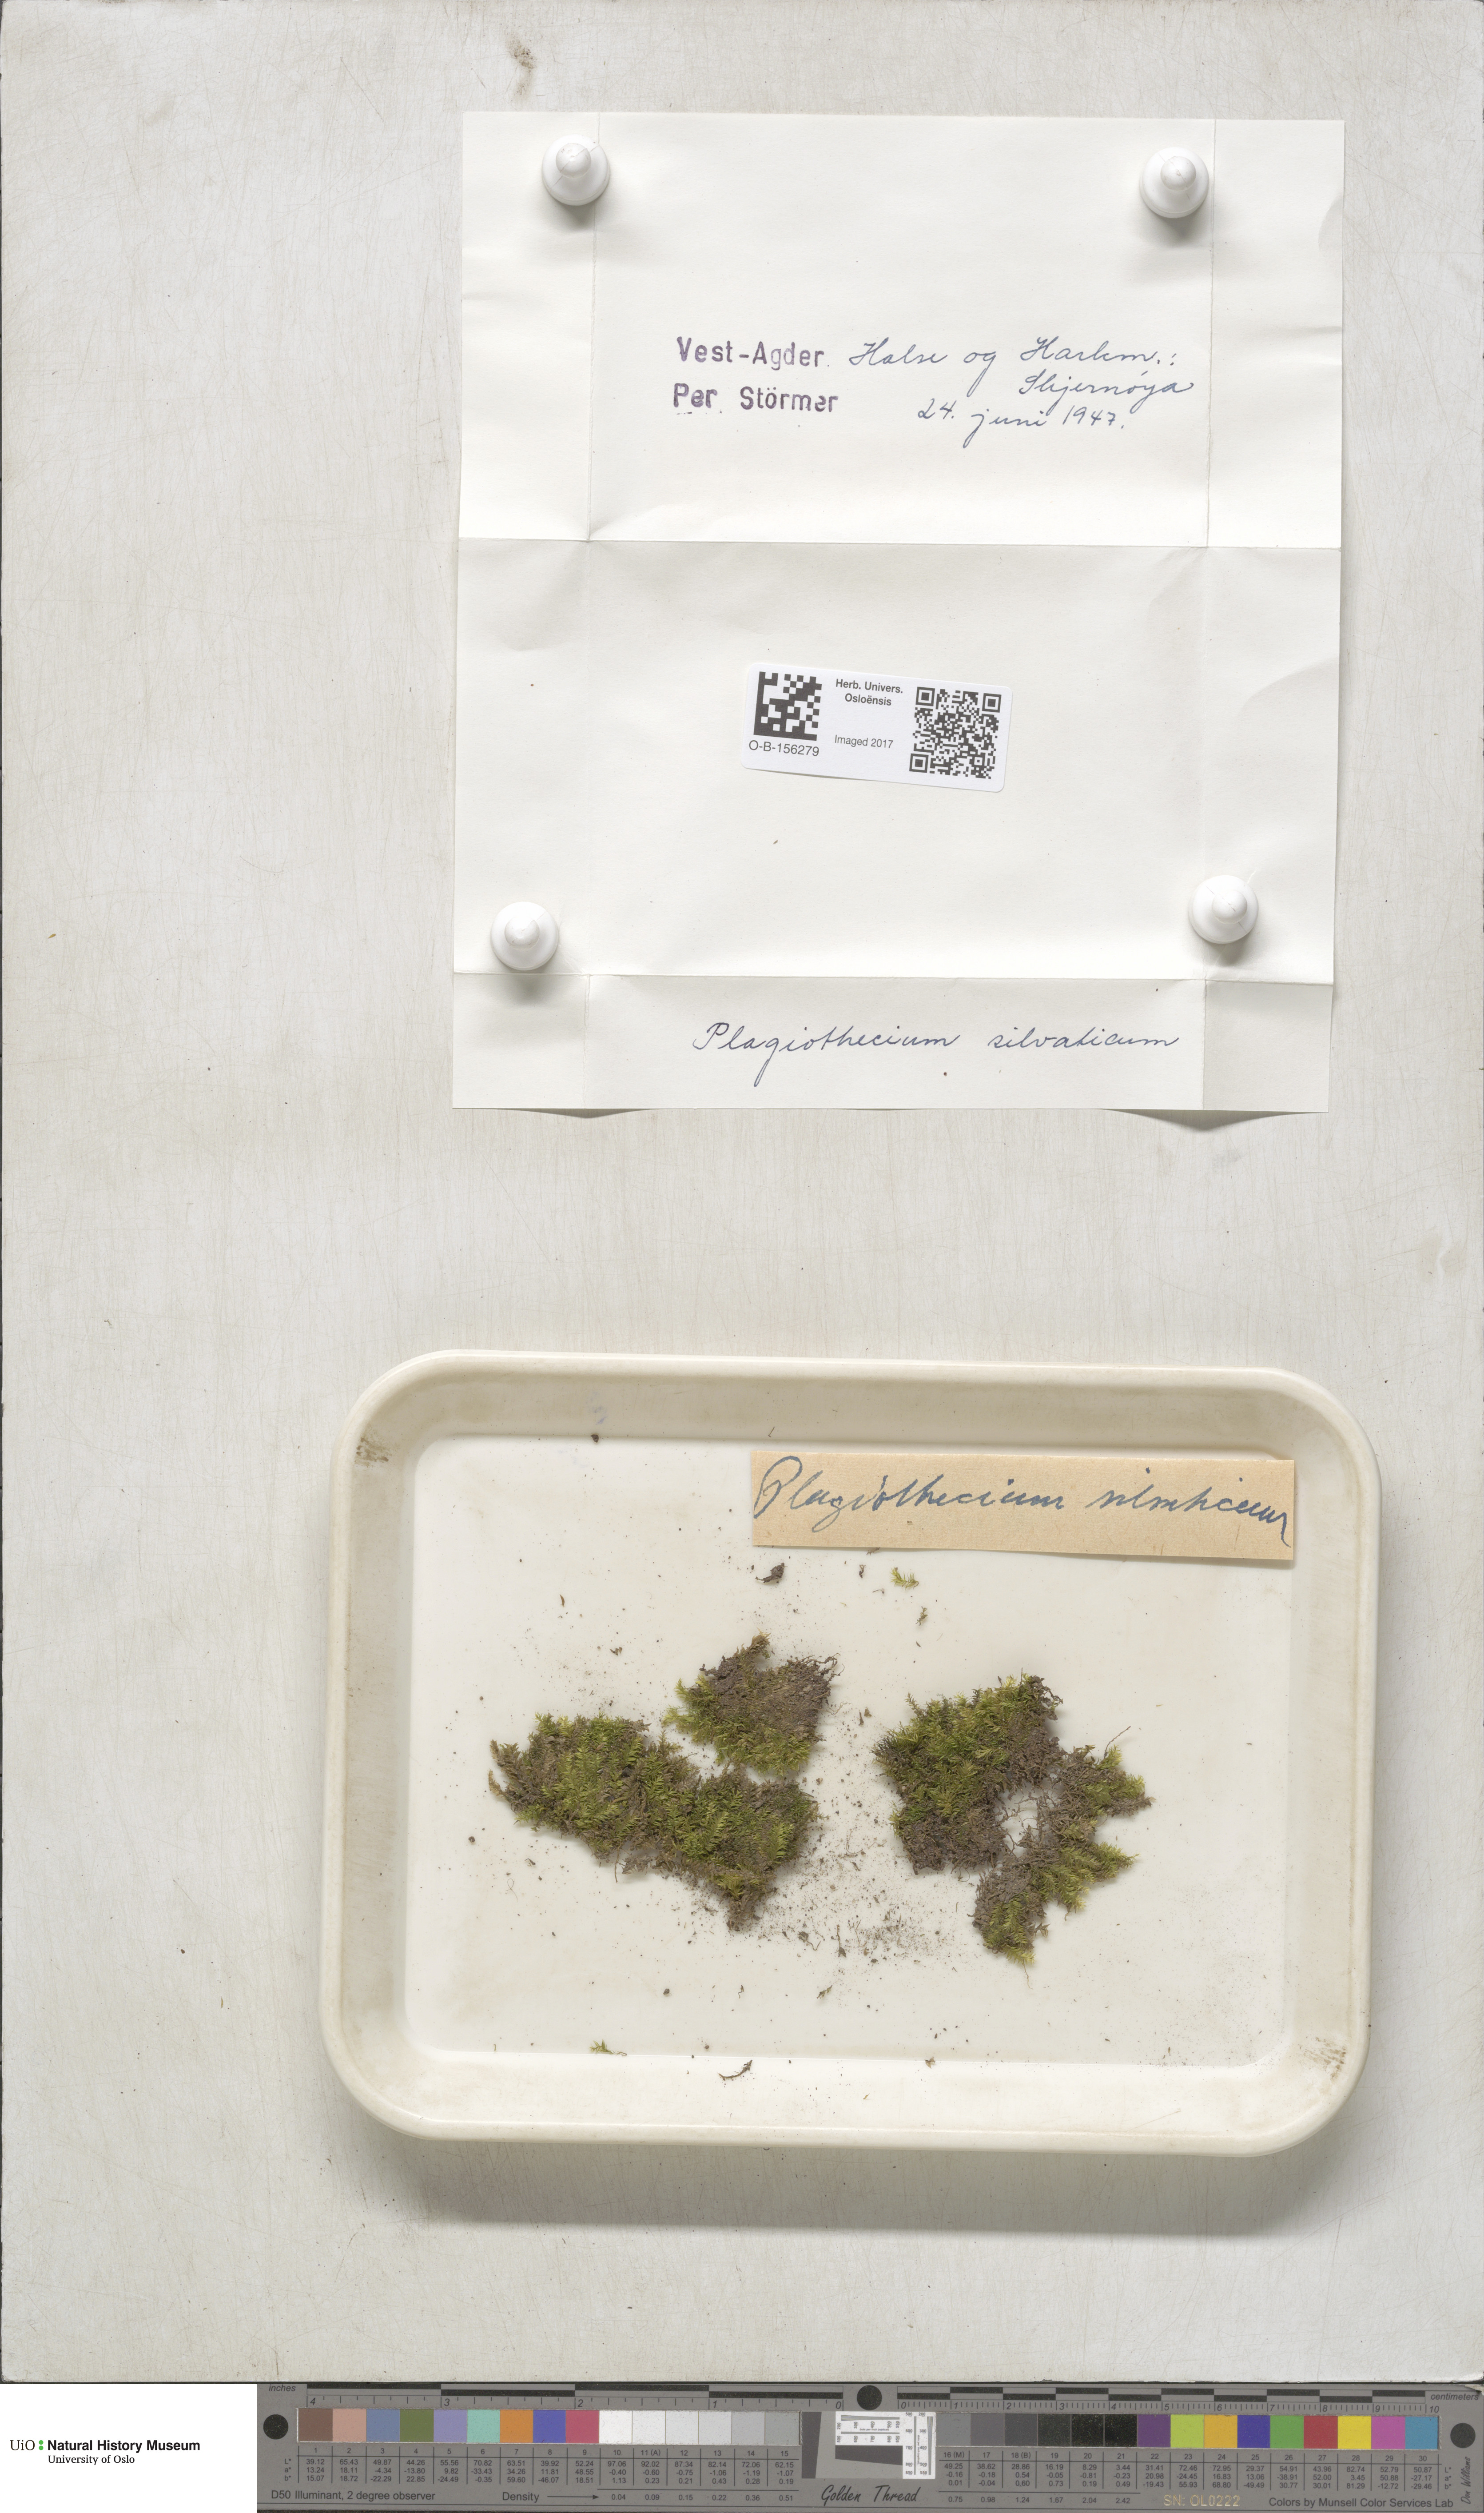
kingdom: Plantae
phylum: Bryophyta
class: Bryopsida
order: Hypnales
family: Plagiotheciaceae
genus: Plagiothecium
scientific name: Plagiothecium nemorale
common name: Woodsy silk-moss
